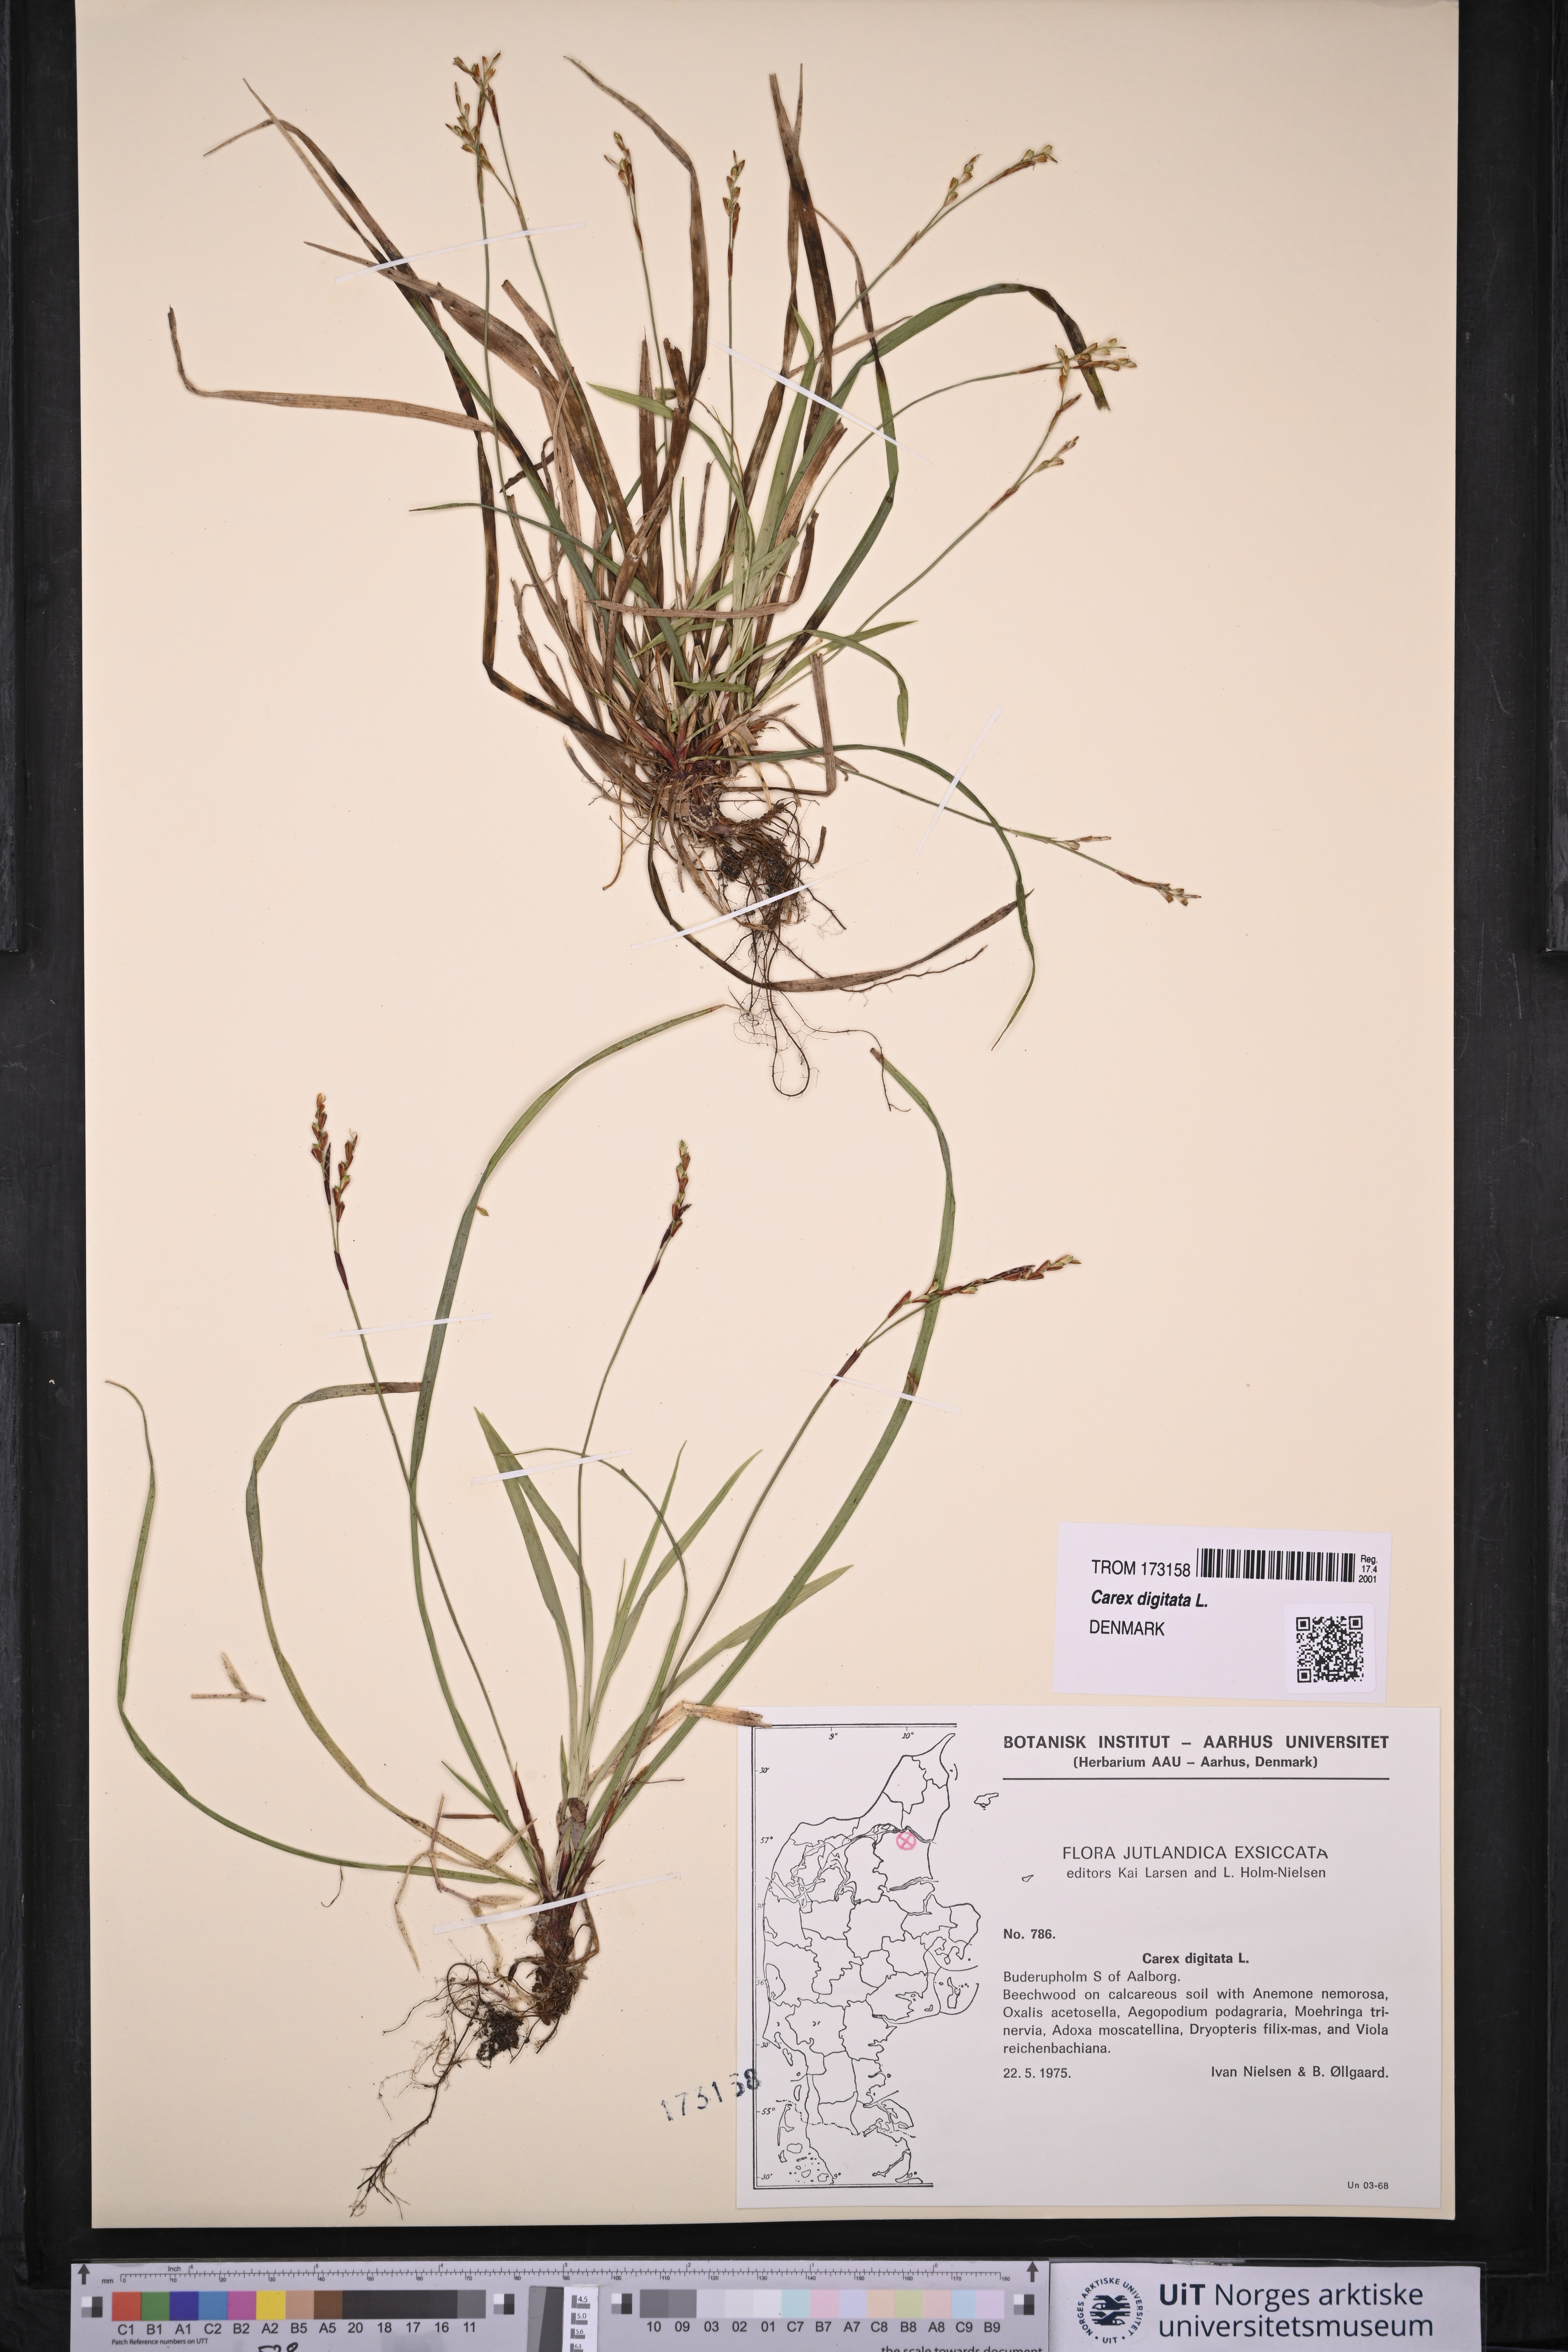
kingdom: Plantae
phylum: Tracheophyta
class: Liliopsida
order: Poales
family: Cyperaceae
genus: Carex
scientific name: Carex digitata
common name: Fingered sedge
